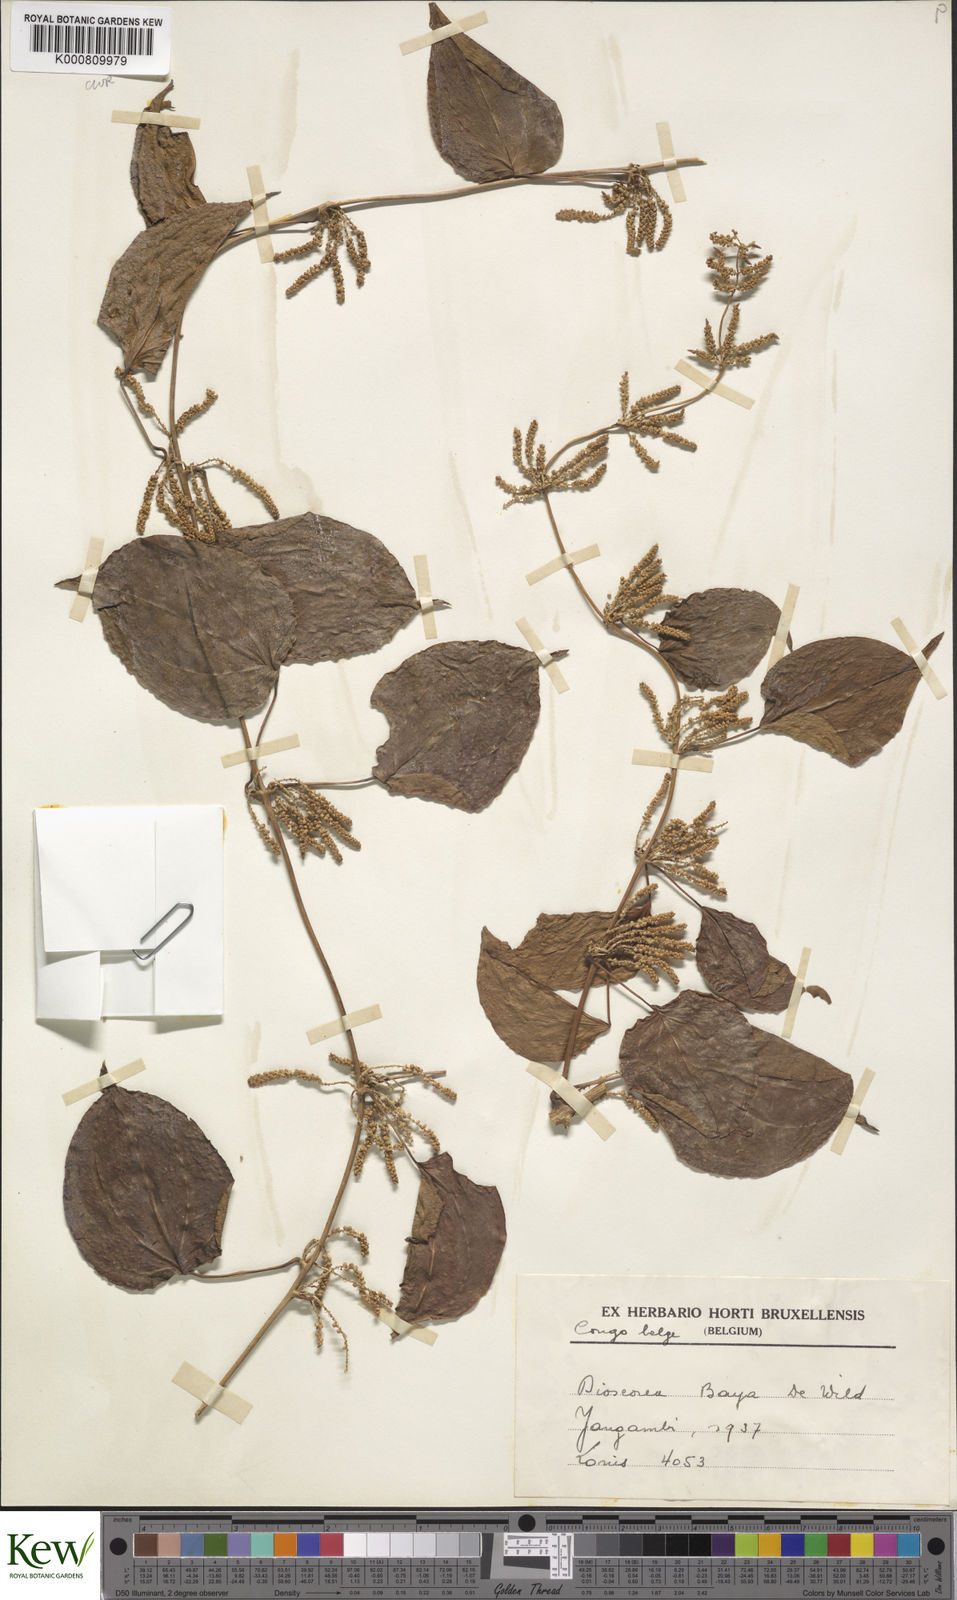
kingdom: Plantae
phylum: Tracheophyta
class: Liliopsida
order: Dioscoreales
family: Dioscoreaceae
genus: Dioscorea
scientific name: Dioscorea baya
